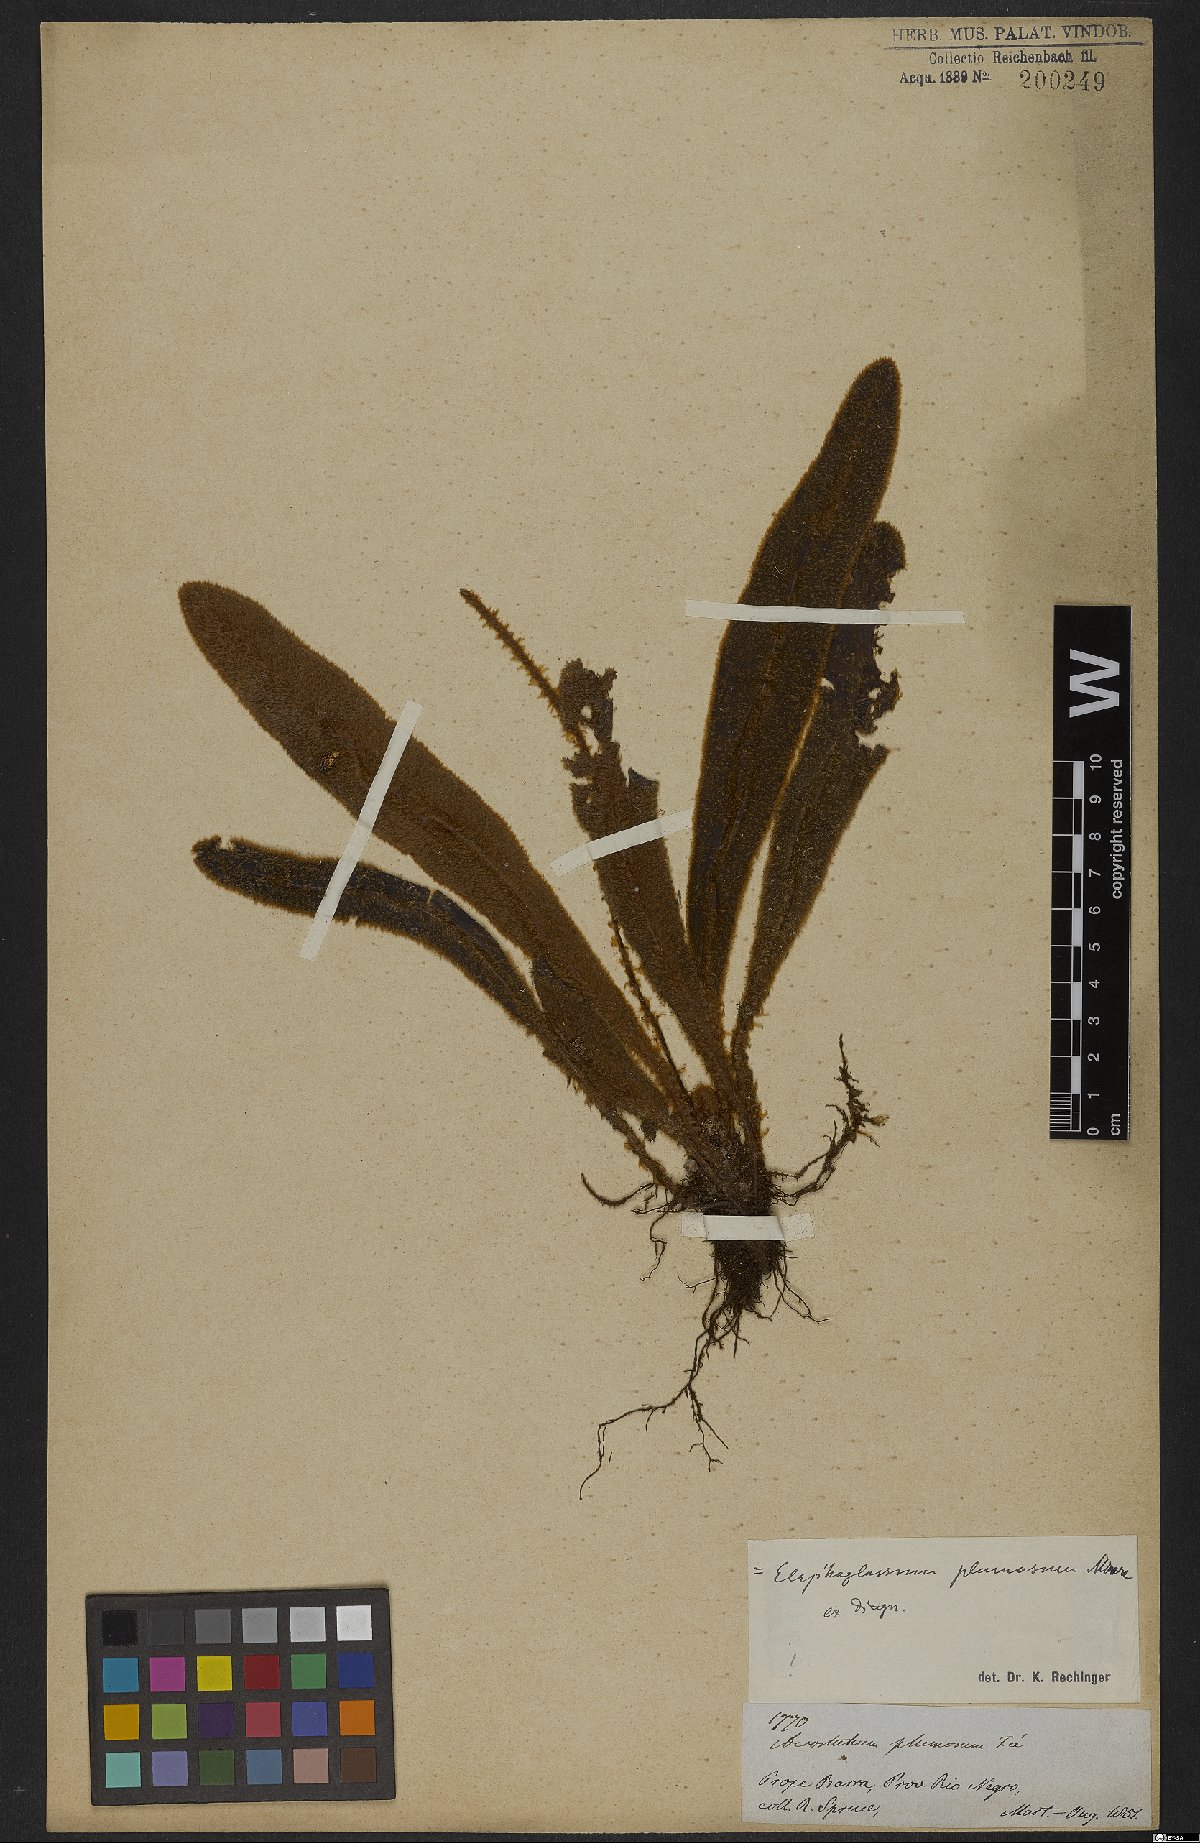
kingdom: Plantae
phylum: Tracheophyta
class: Polypodiopsida
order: Polypodiales
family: Dryopteridaceae
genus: Elaphoglossum
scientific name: Elaphoglossum plumosum
